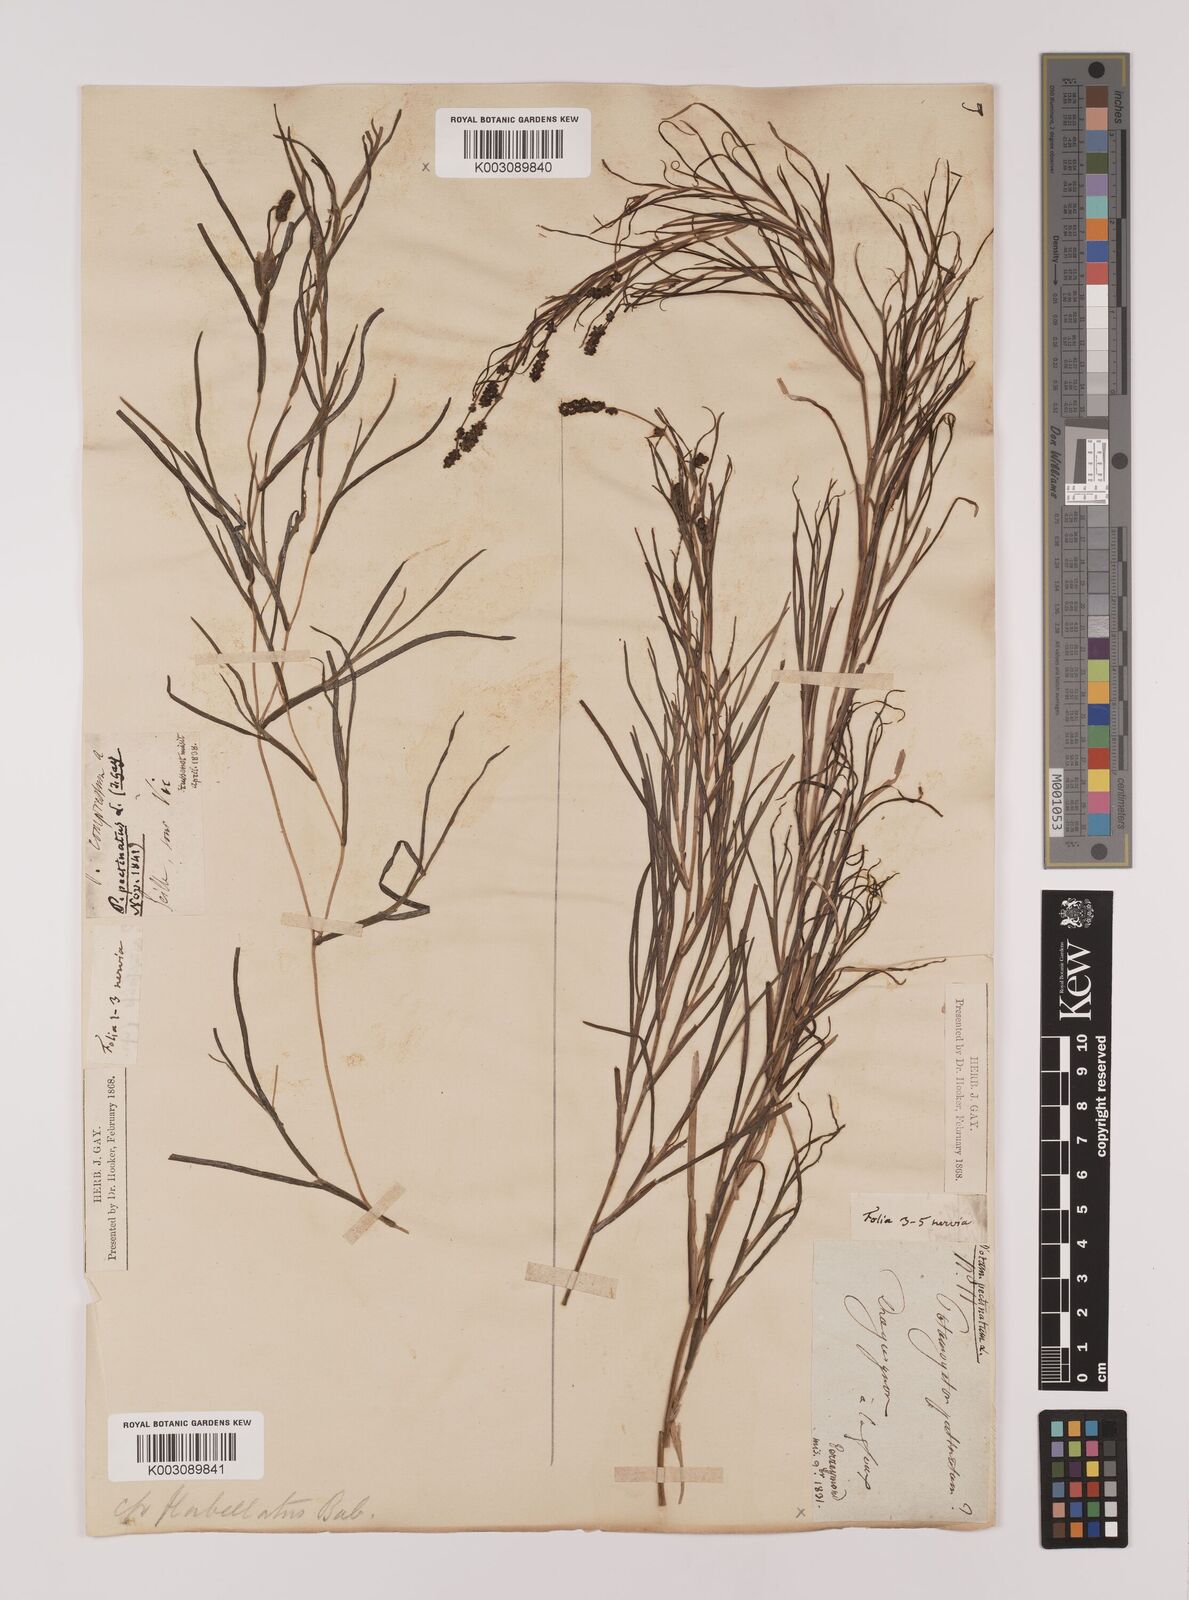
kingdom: Plantae
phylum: Tracheophyta
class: Liliopsida
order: Alismatales
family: Potamogetonaceae
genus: Stuckenia
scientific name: Stuckenia pectinata
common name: Sago pondweed
